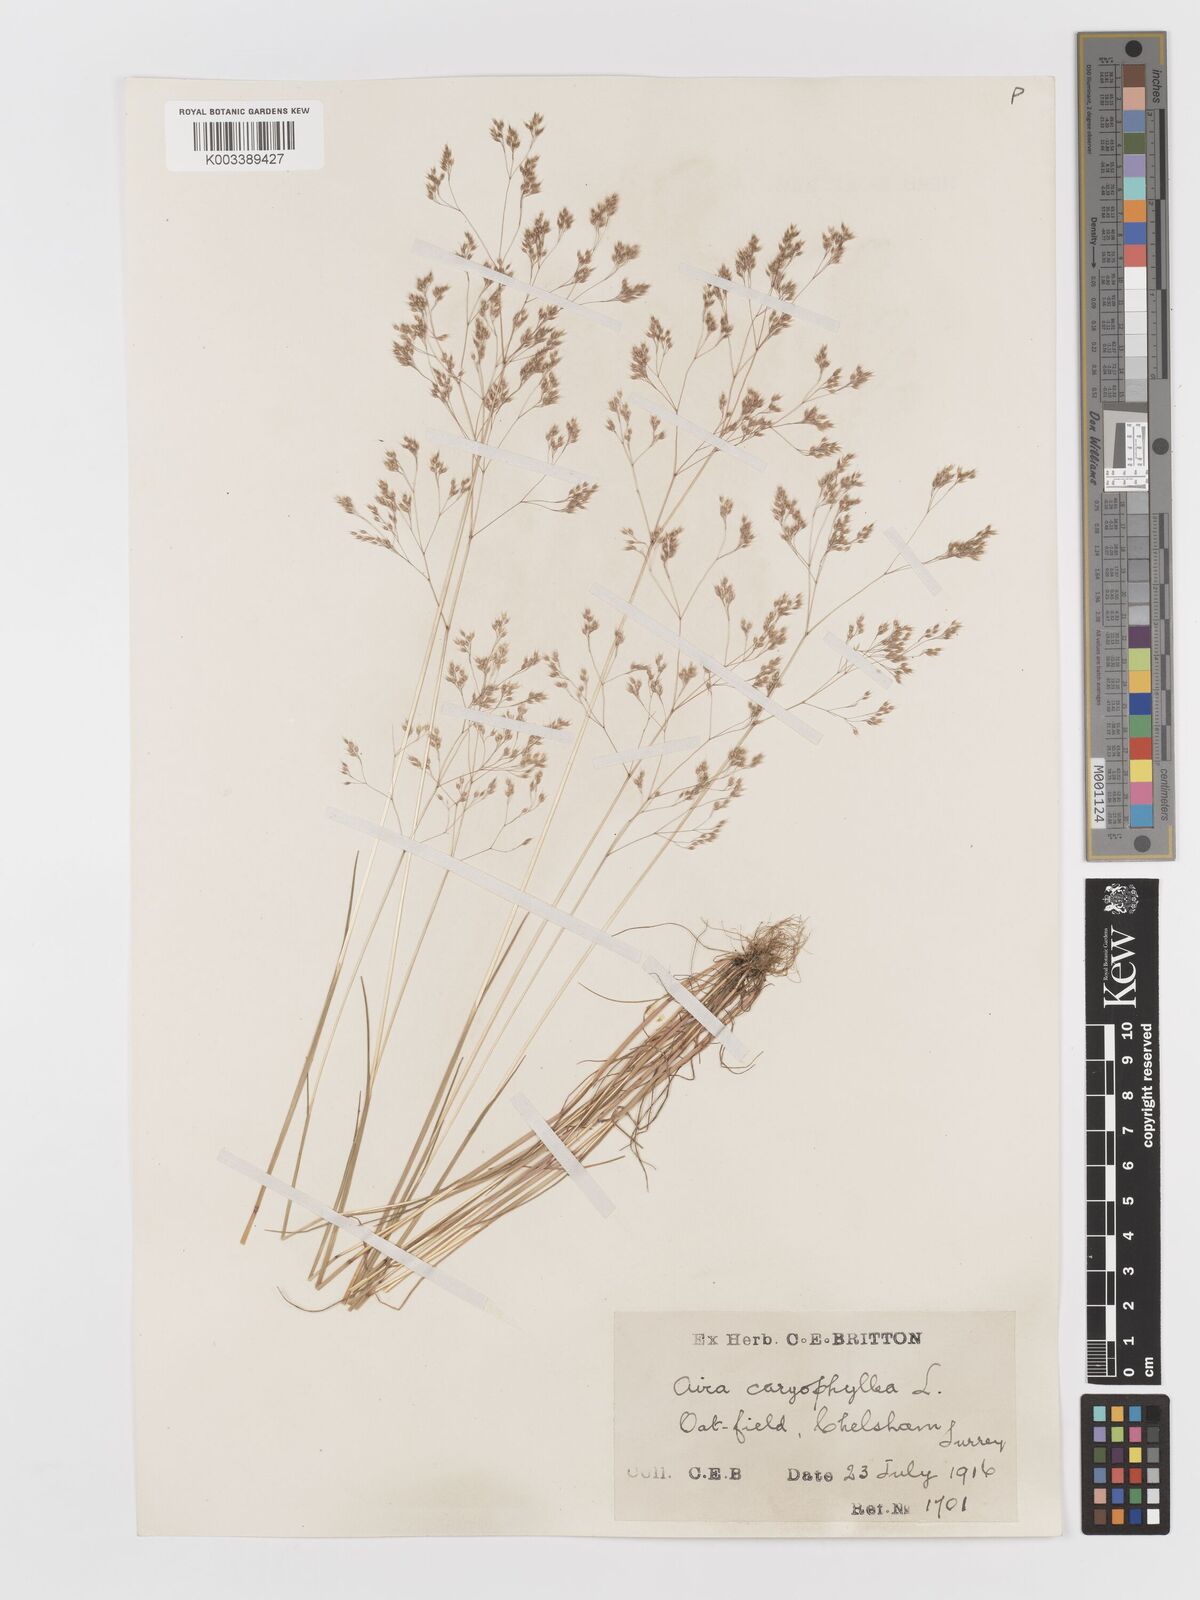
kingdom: Plantae
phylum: Tracheophyta
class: Liliopsida
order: Poales
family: Poaceae
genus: Aira
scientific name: Aira caryophyllea
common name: Silver hairgrass
